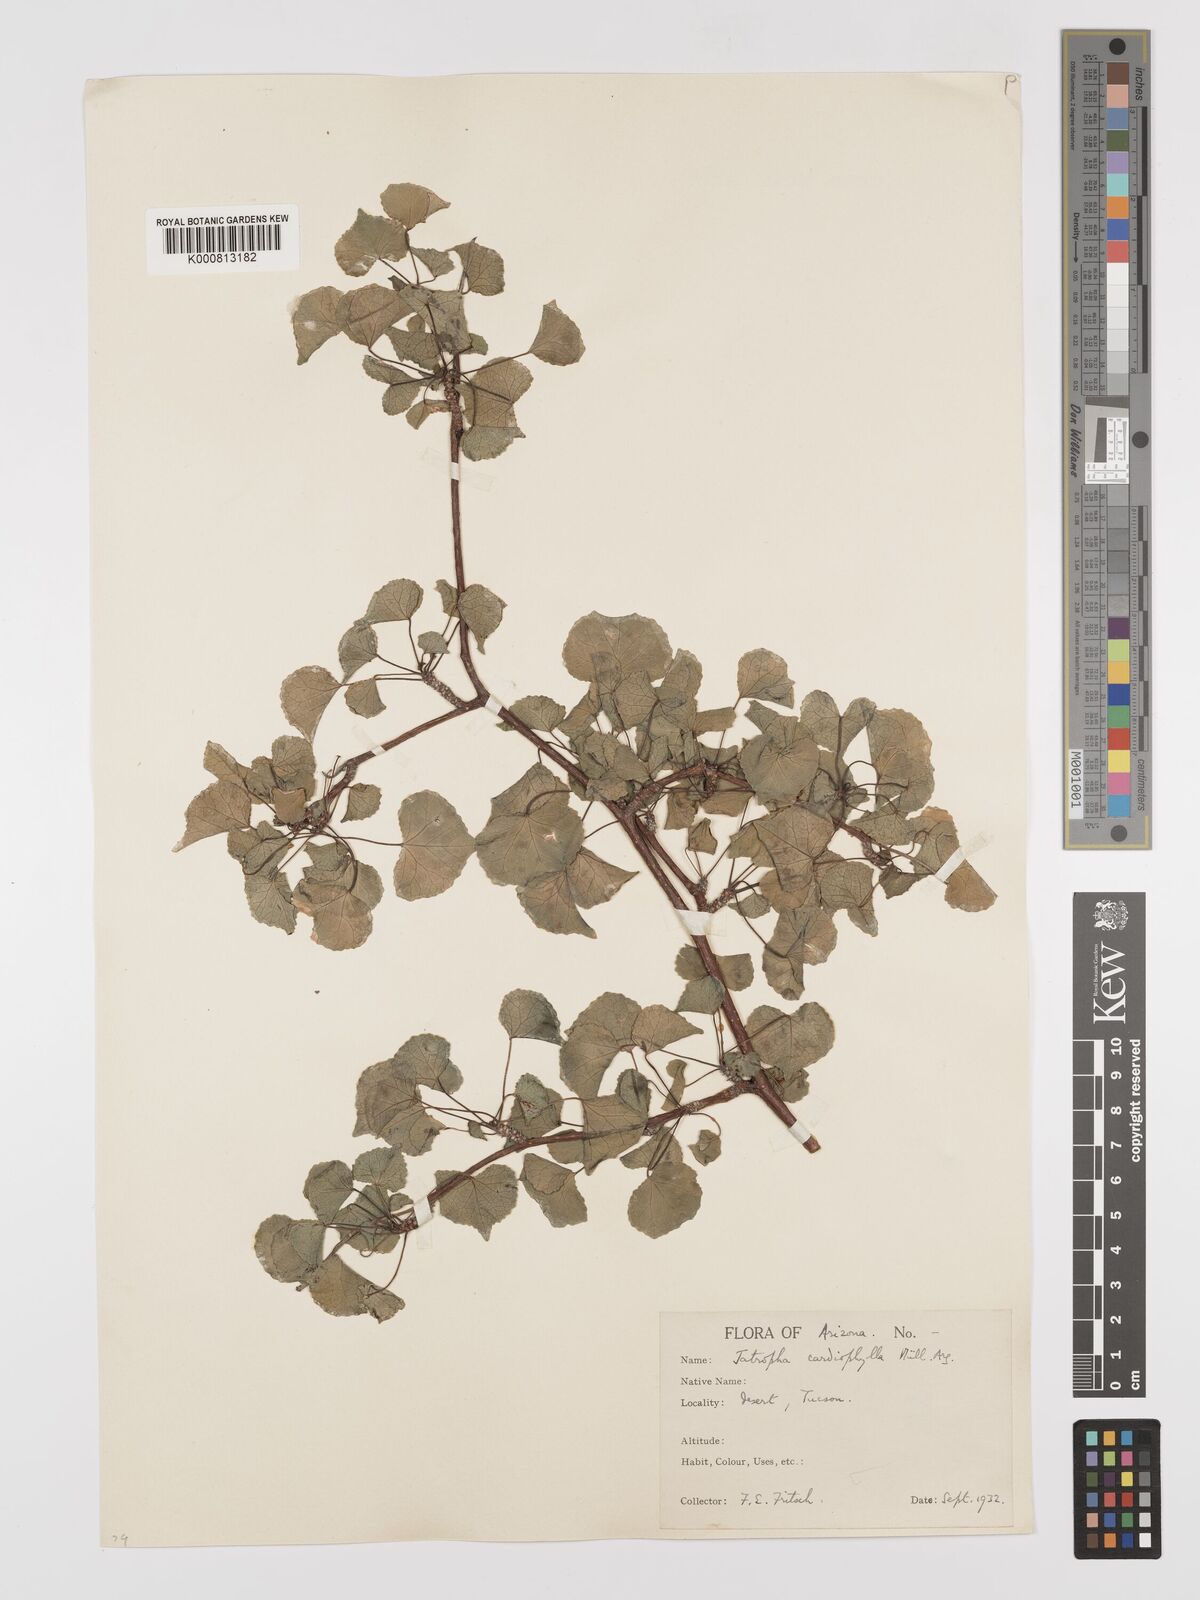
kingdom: Plantae
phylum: Tracheophyta
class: Magnoliopsida
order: Malpighiales
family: Euphorbiaceae
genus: Jatropha
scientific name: Jatropha
